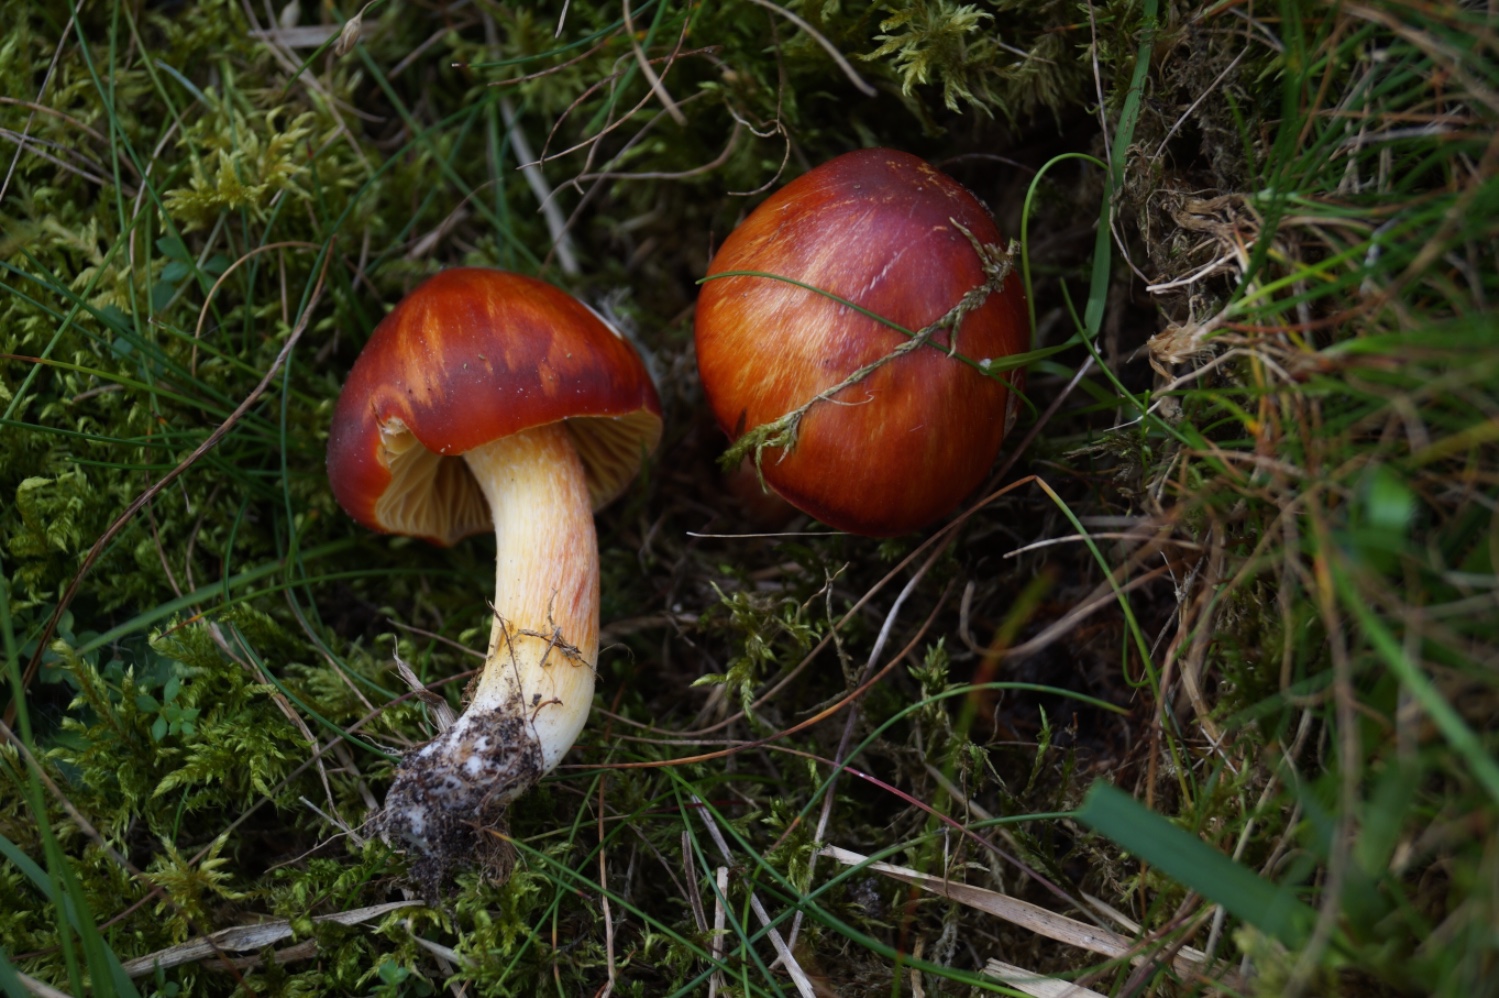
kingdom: Fungi
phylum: Basidiomycota
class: Agaricomycetes
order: Agaricales
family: Hygrophoraceae
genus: Hygrocybe
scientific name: Hygrocybe punicea
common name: skarlagen-vokshat
